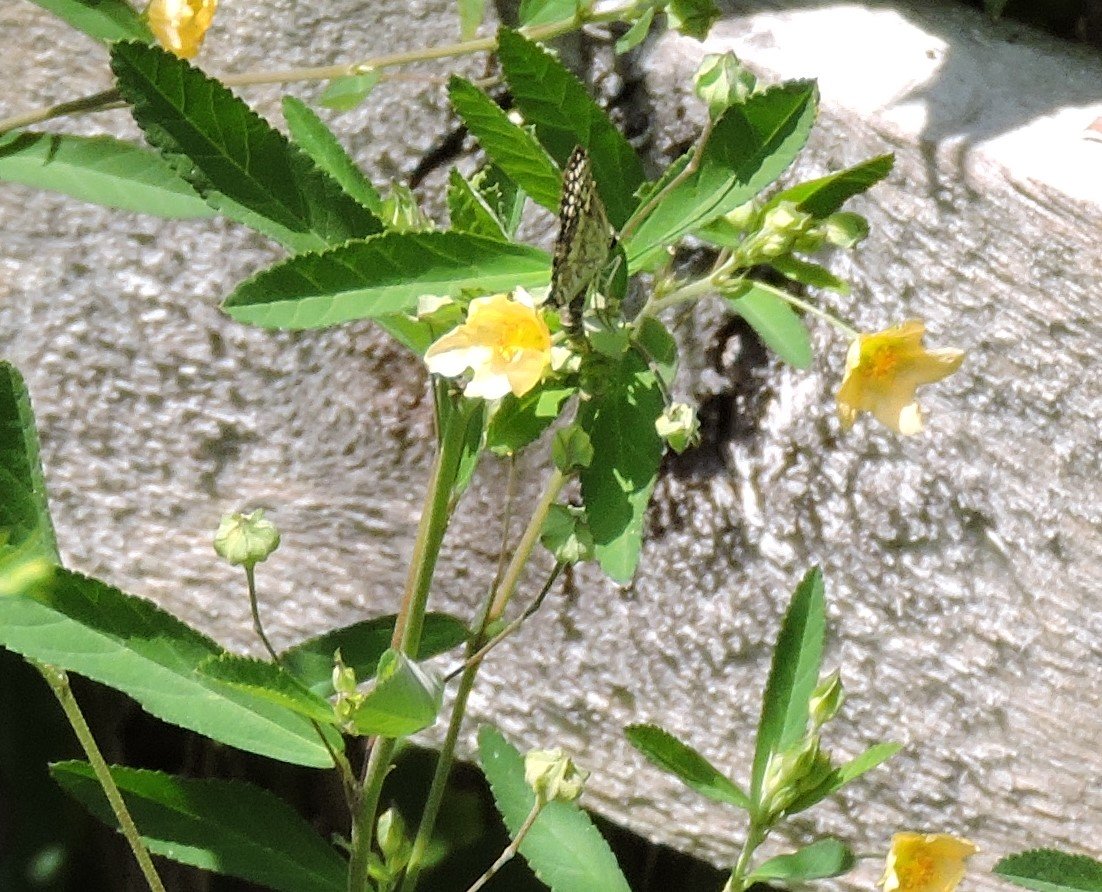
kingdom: Animalia
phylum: Arthropoda
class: Insecta
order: Lepidoptera
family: Hesperiidae
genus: Pyrgus
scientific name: Pyrgus
